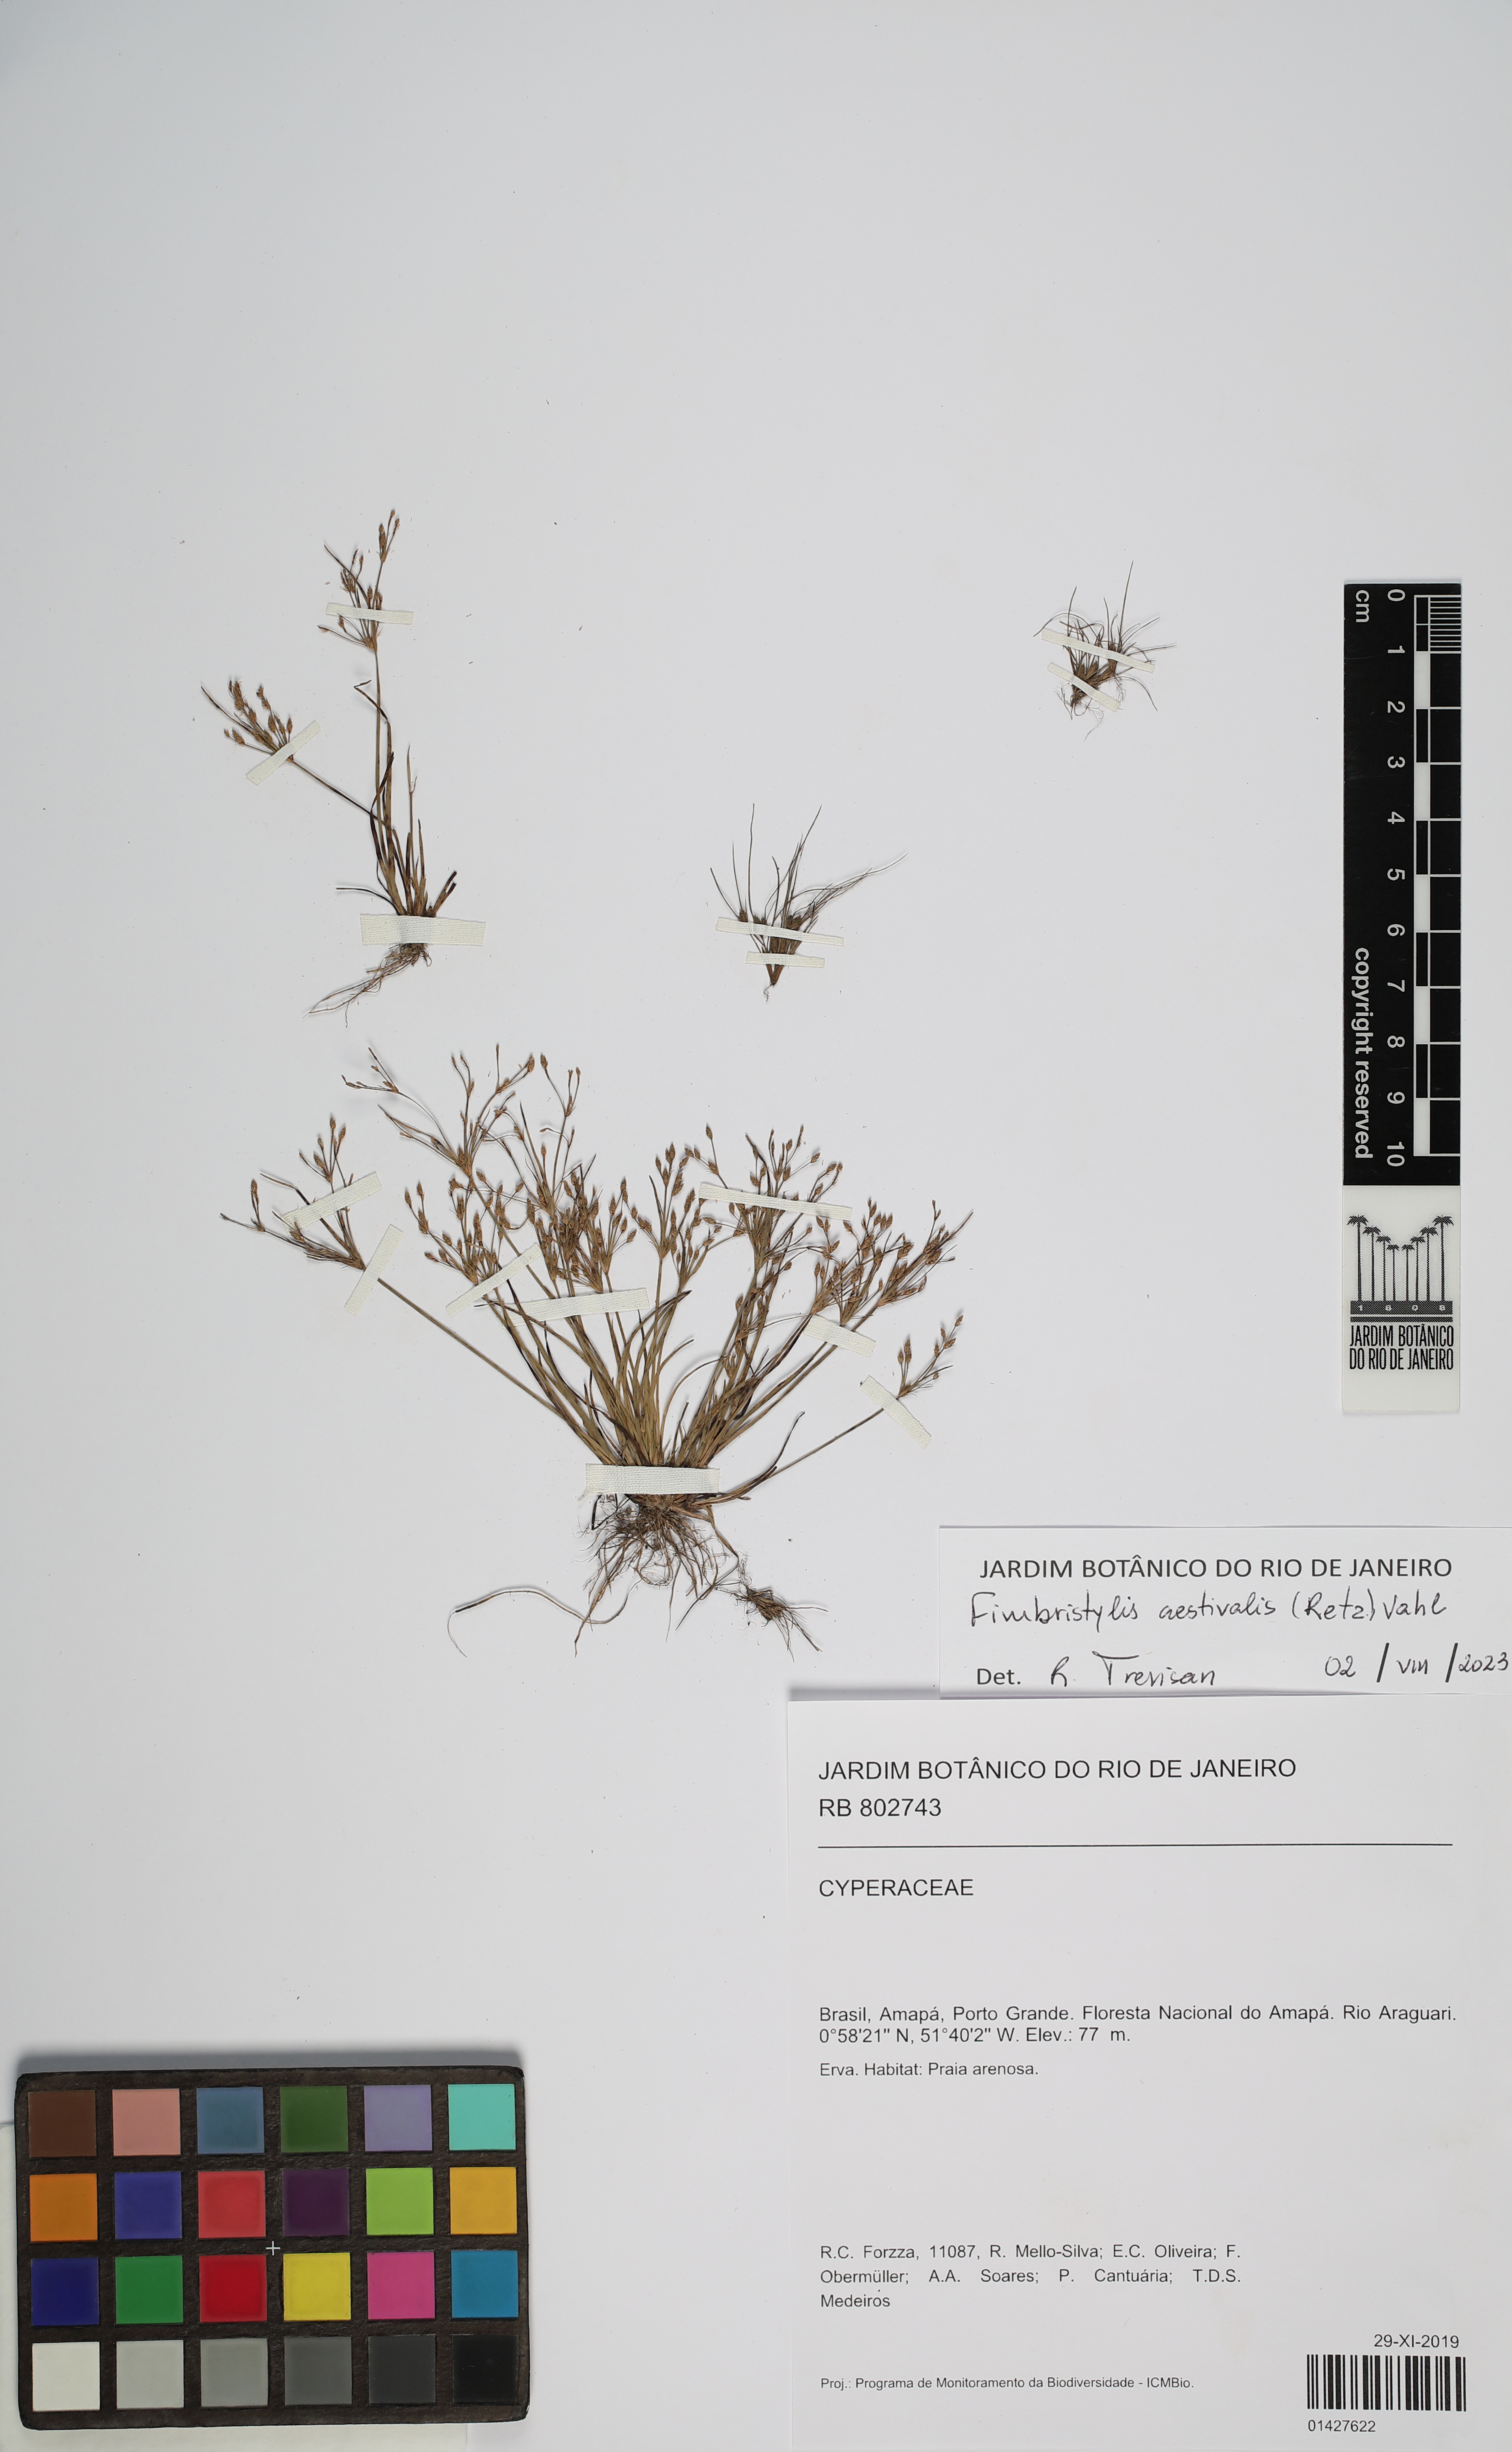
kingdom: Plantae
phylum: Tracheophyta
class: Liliopsida
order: Poales
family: Cyperaceae
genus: Fimbristylis
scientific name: Fimbristylis aestivalis
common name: Summer fimbry
